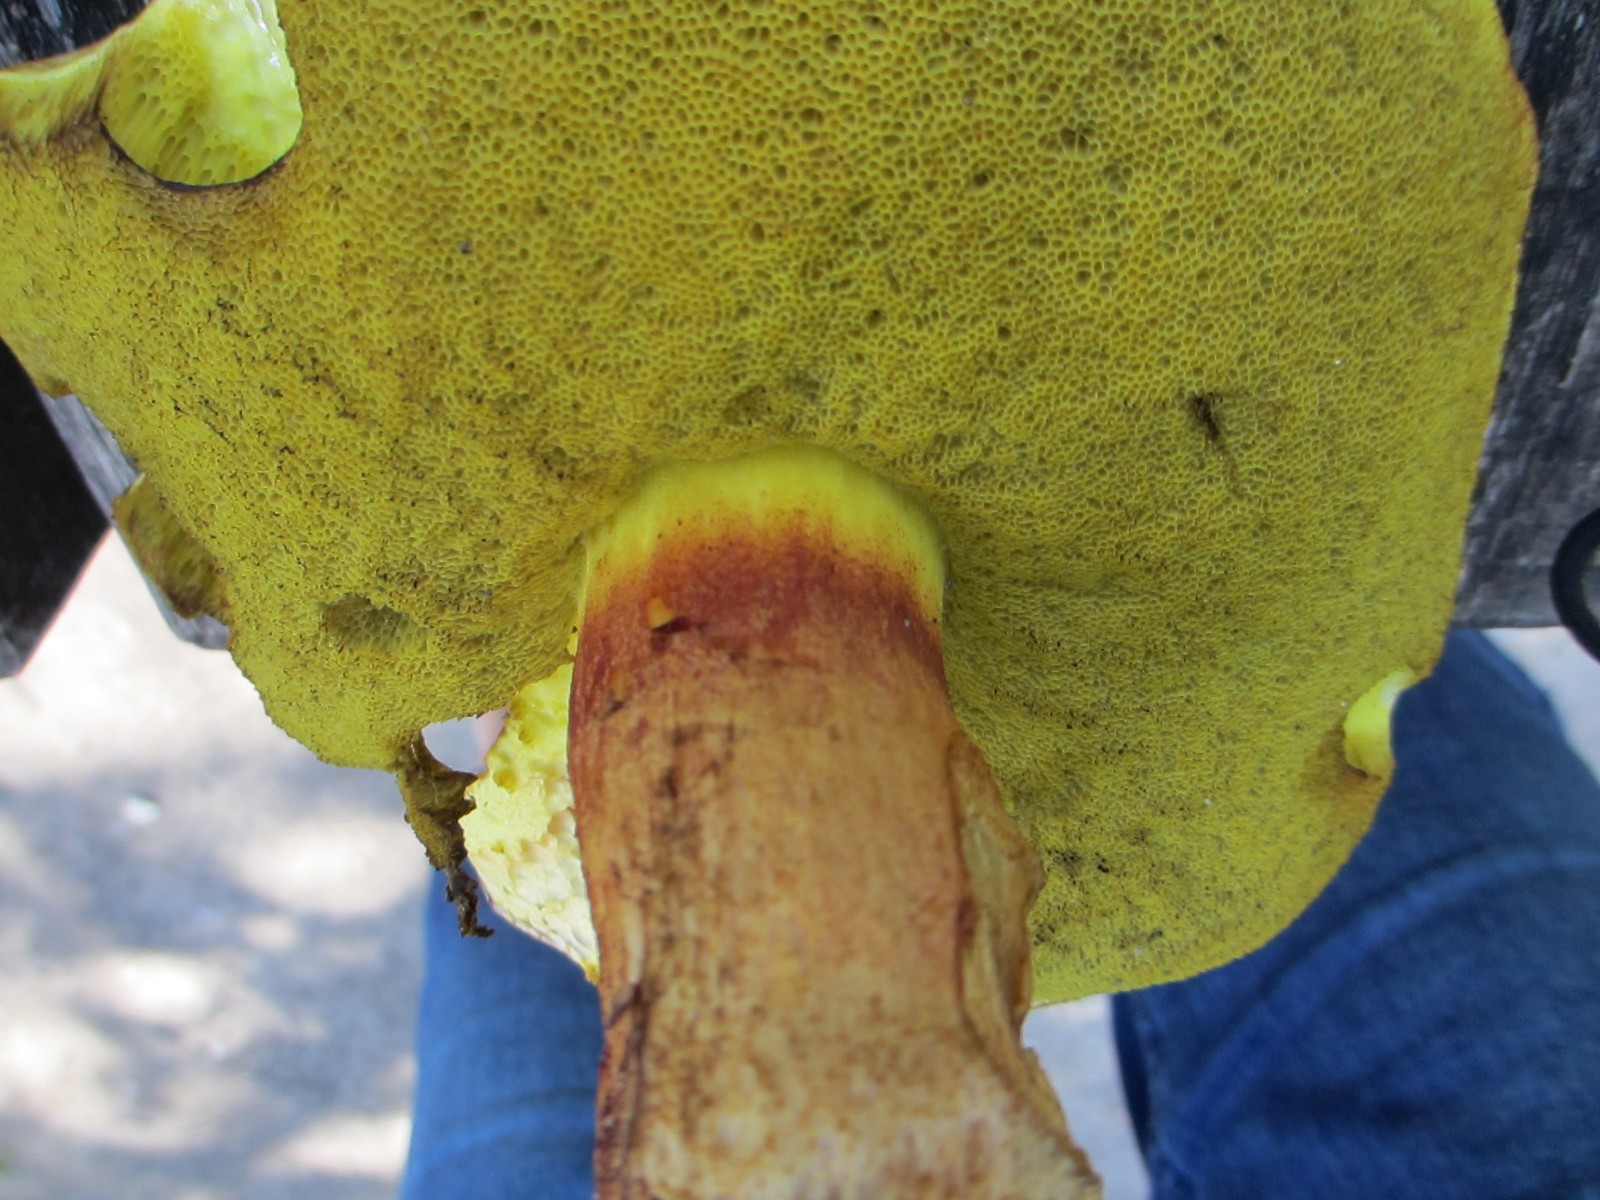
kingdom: Fungi
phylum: Basidiomycota
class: Agaricomycetes
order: Boletales
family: Boletaceae
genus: Xerocomellus
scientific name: Xerocomellus chrysenteron
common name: rødsprukken rørhat
